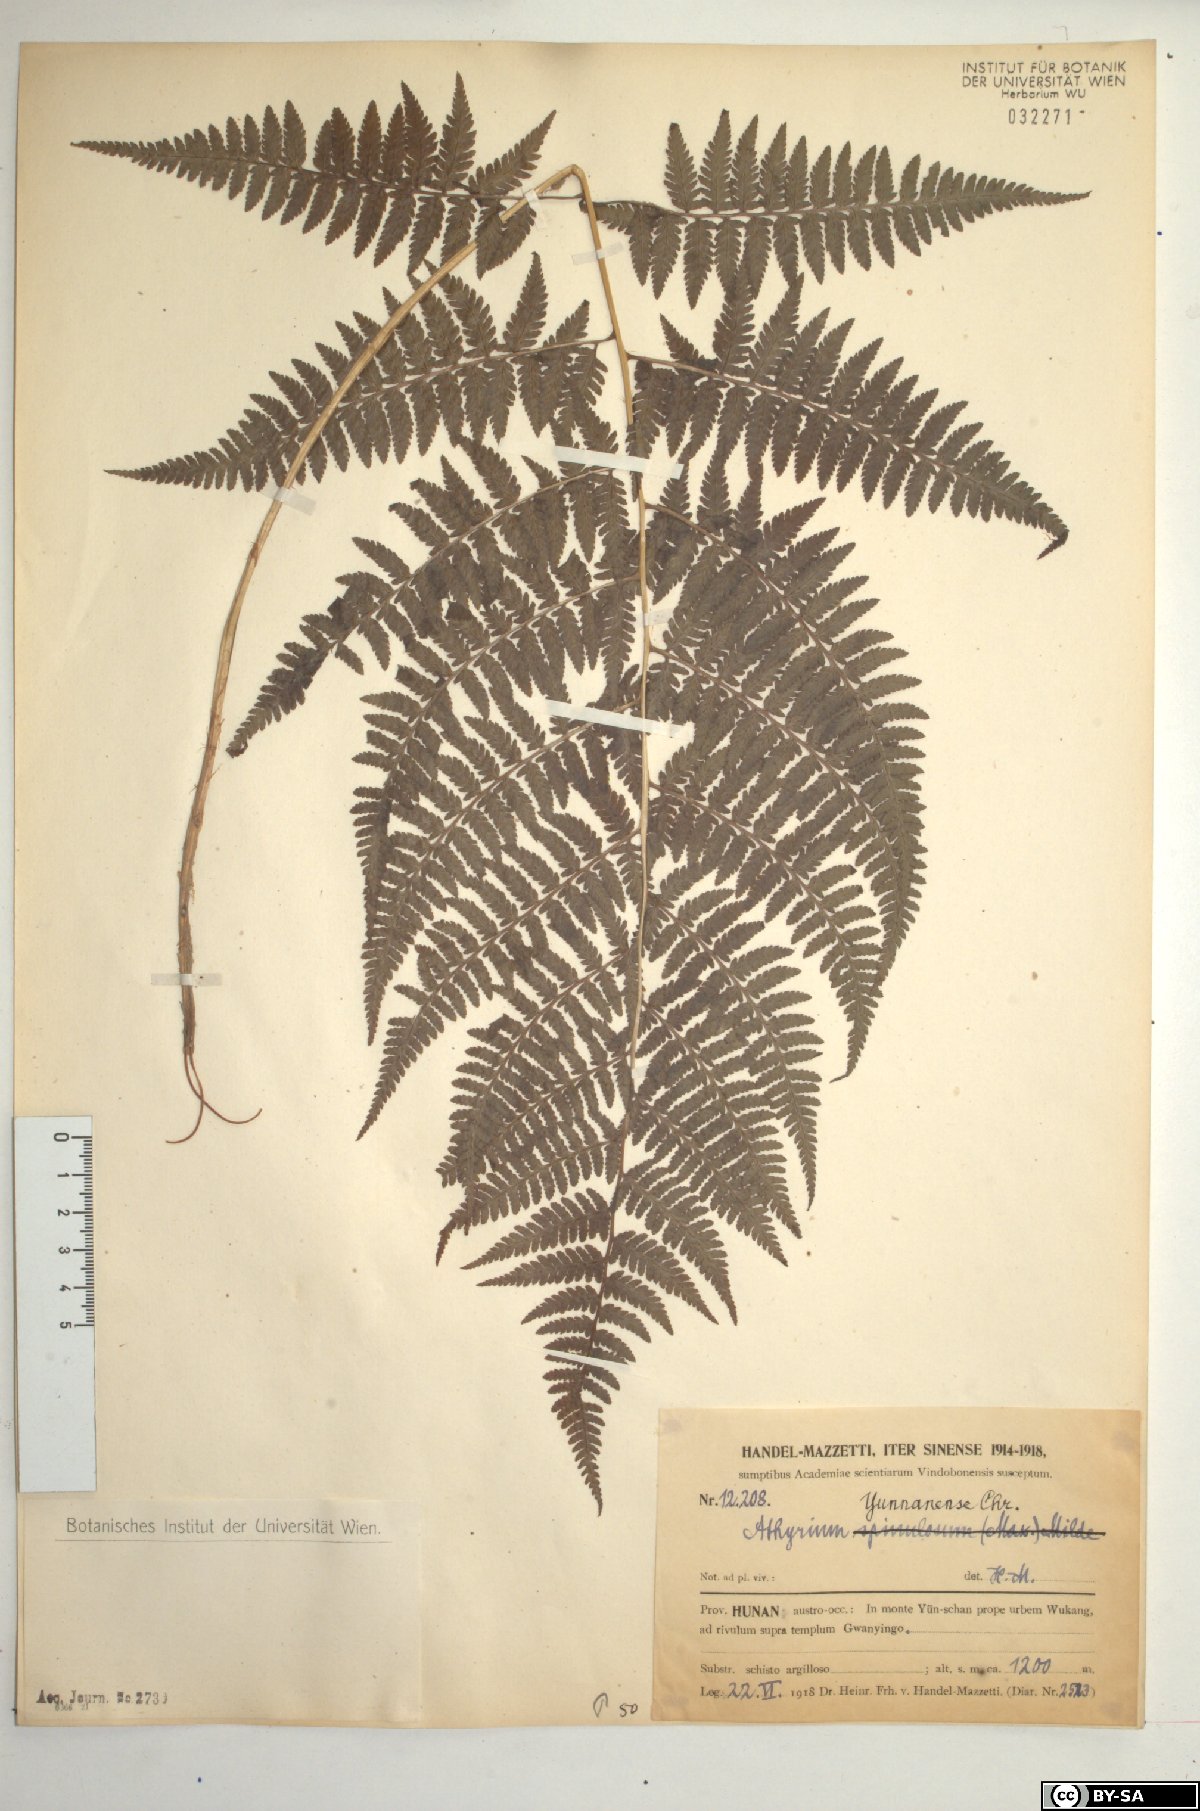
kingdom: Plantae
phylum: Tracheophyta
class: Polypodiopsida
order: Polypodiales
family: Athyriaceae
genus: Anisocampium
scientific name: Anisocampium niponicum
